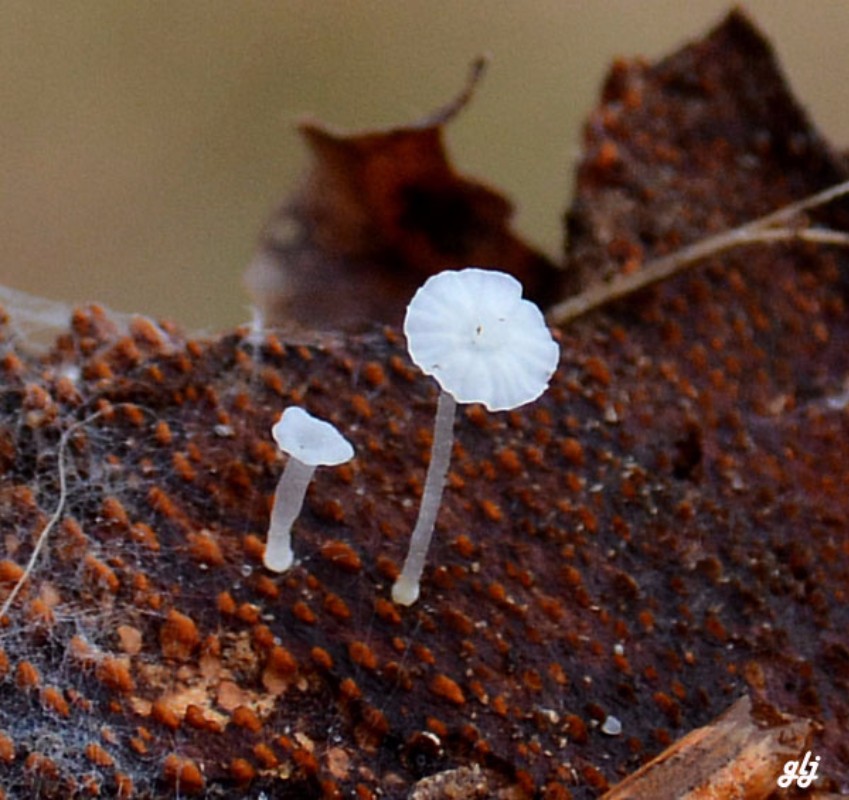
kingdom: Fungi
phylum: Basidiomycota
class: Agaricomycetes
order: Agaricales
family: Mycenaceae
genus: Mycena
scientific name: Mycena
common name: huesvamp
